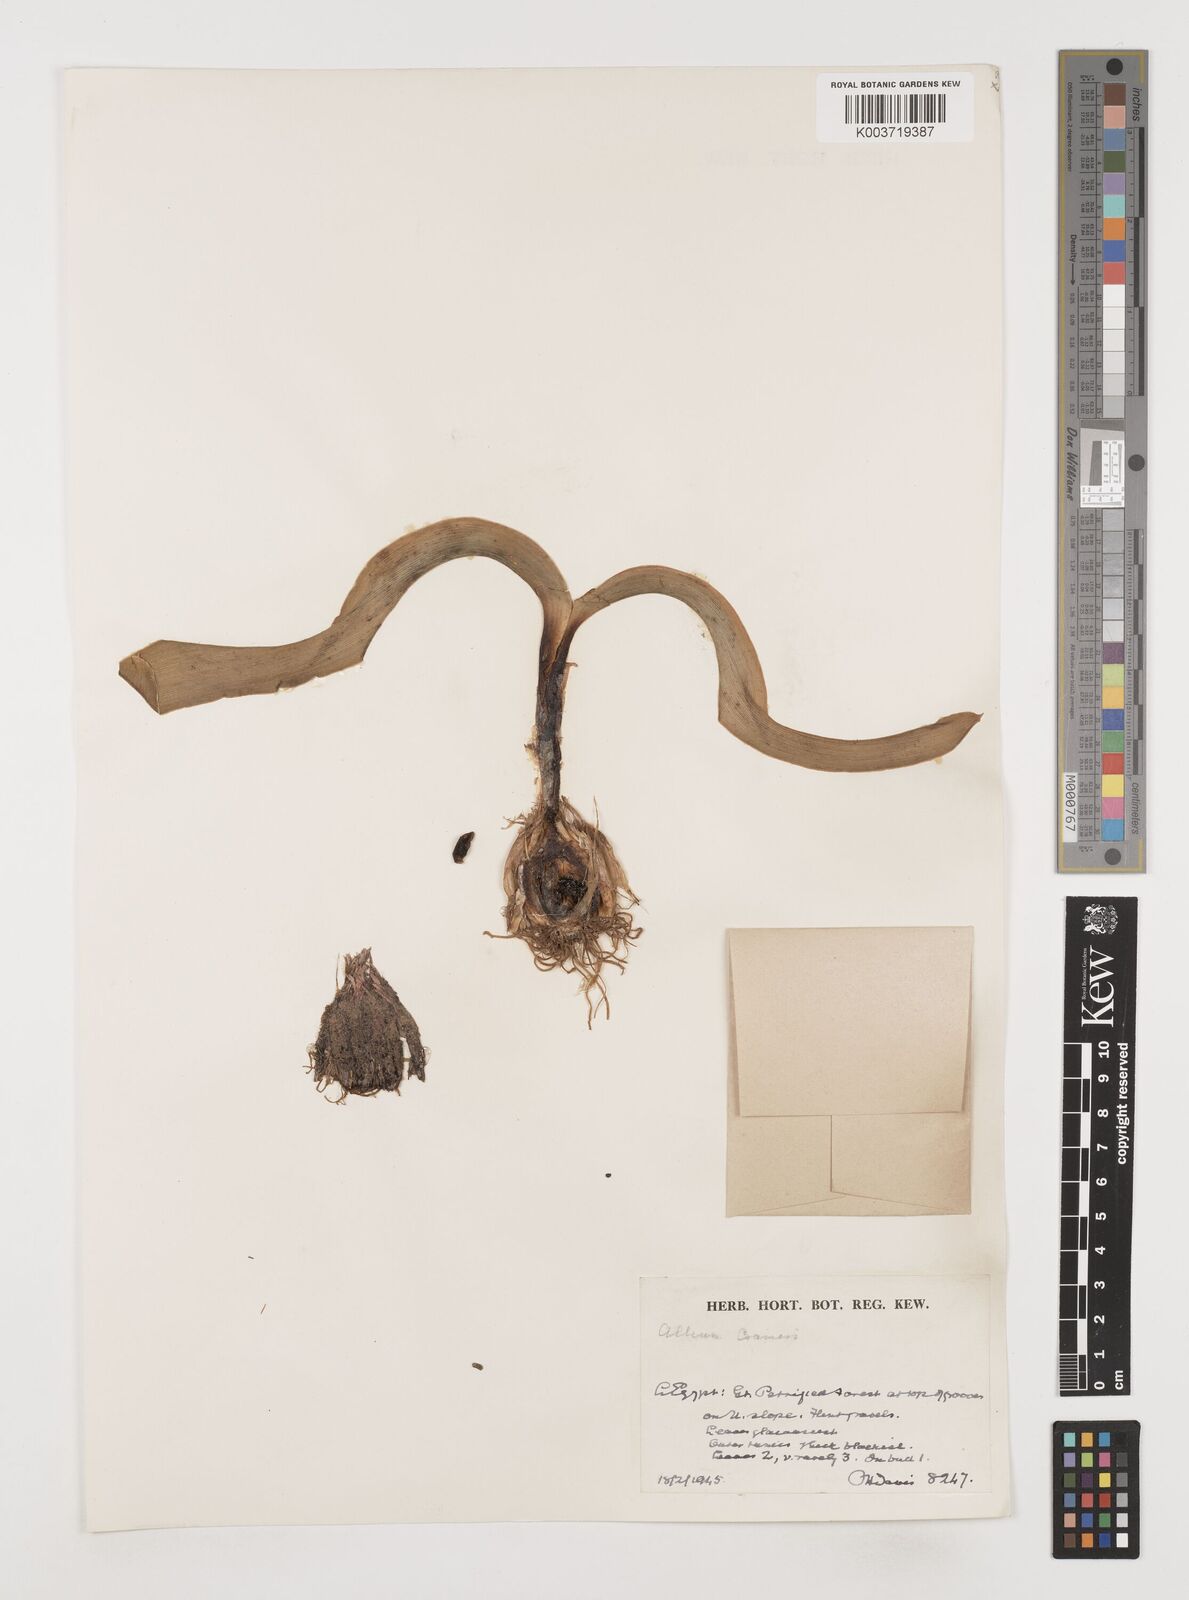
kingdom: Plantae
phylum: Tracheophyta
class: Liliopsida
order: Asparagales
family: Amaryllidaceae
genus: Allium
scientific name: Allium crameri
